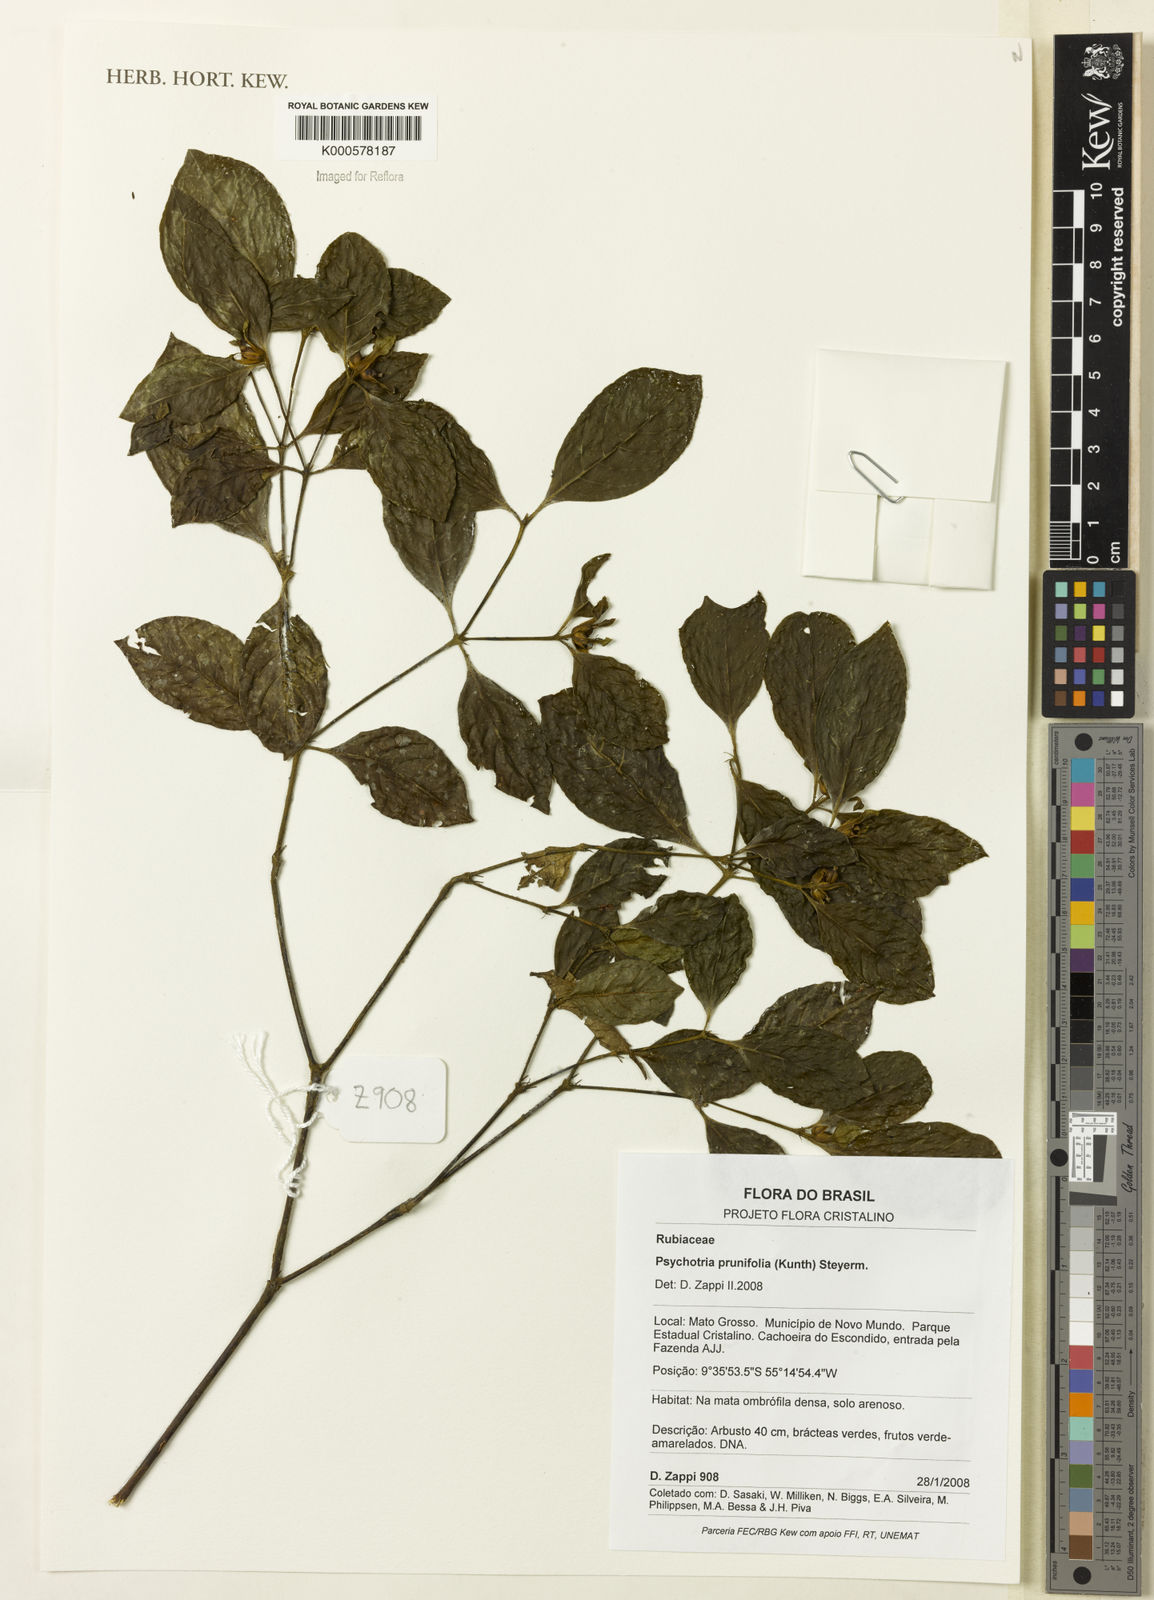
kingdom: Plantae
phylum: Tracheophyta
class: Magnoliopsida
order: Gentianales
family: Rubiaceae
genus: Palicourea
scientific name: Palicourea prunifolia
